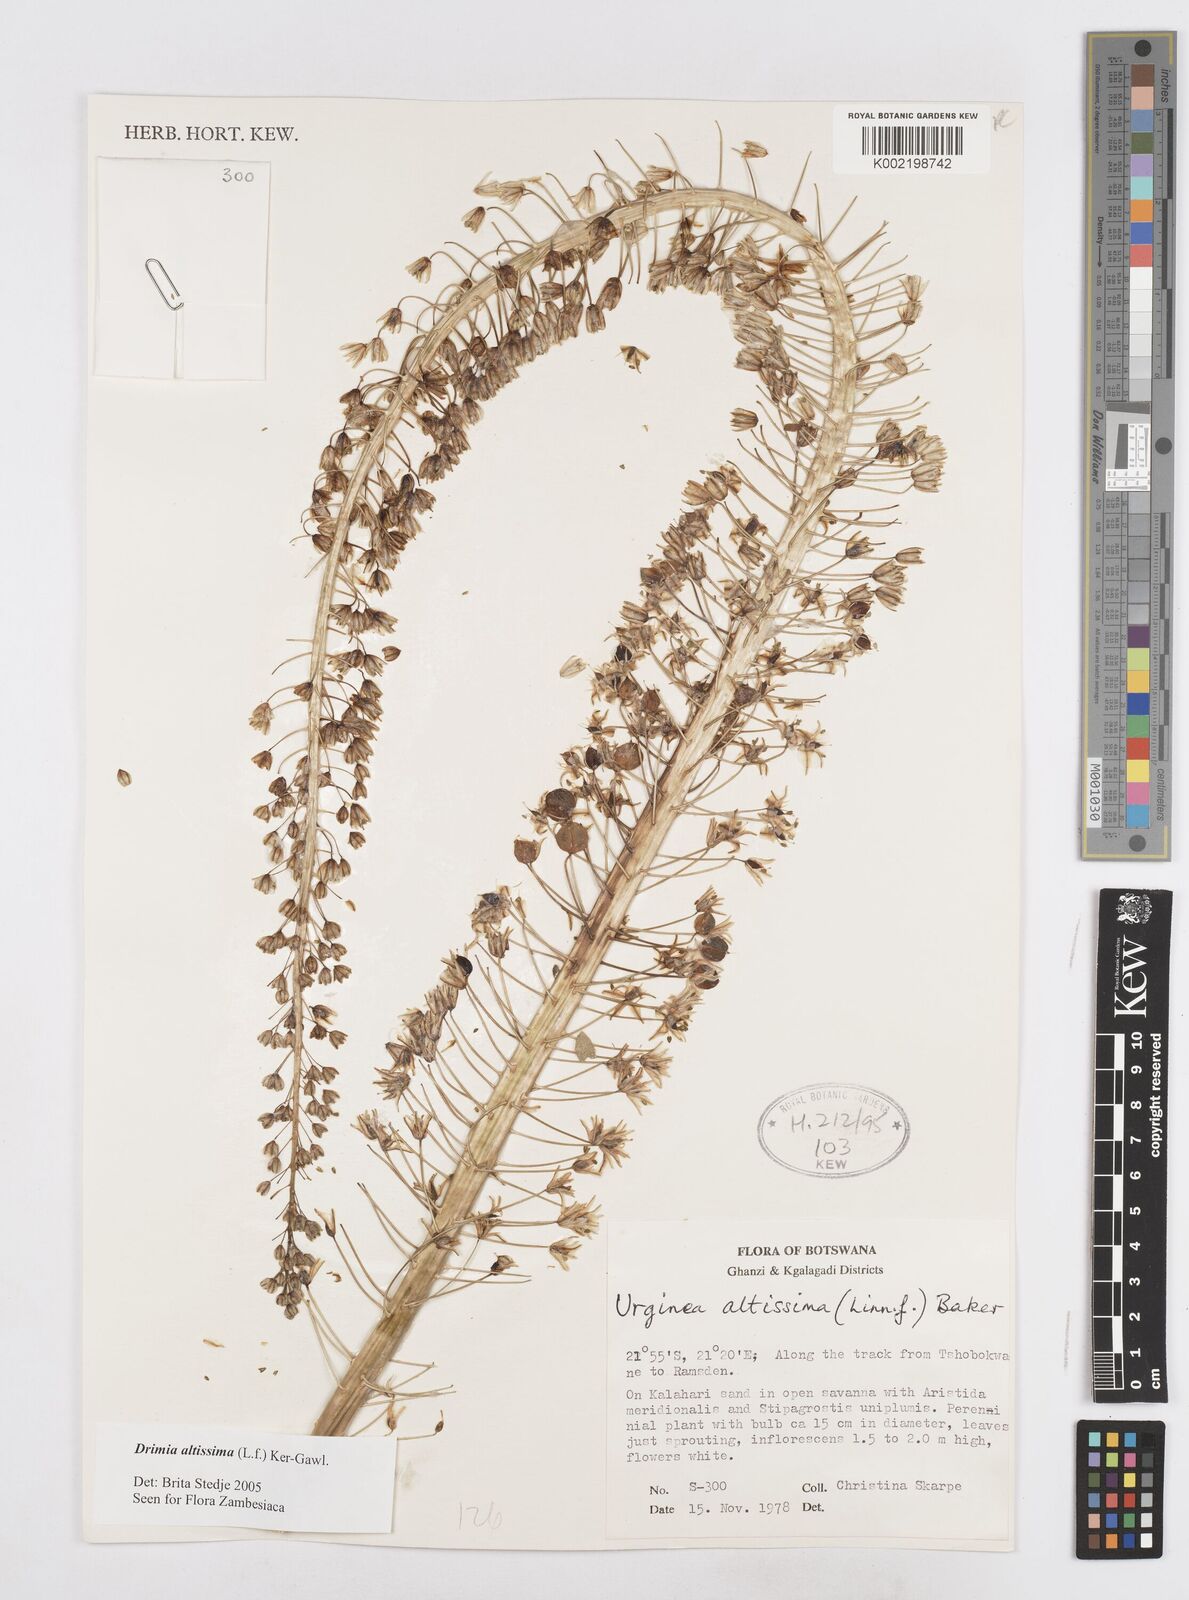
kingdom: Plantae
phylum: Tracheophyta
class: Liliopsida
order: Asparagales
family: Asparagaceae
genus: Drimia
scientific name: Drimia altissima
